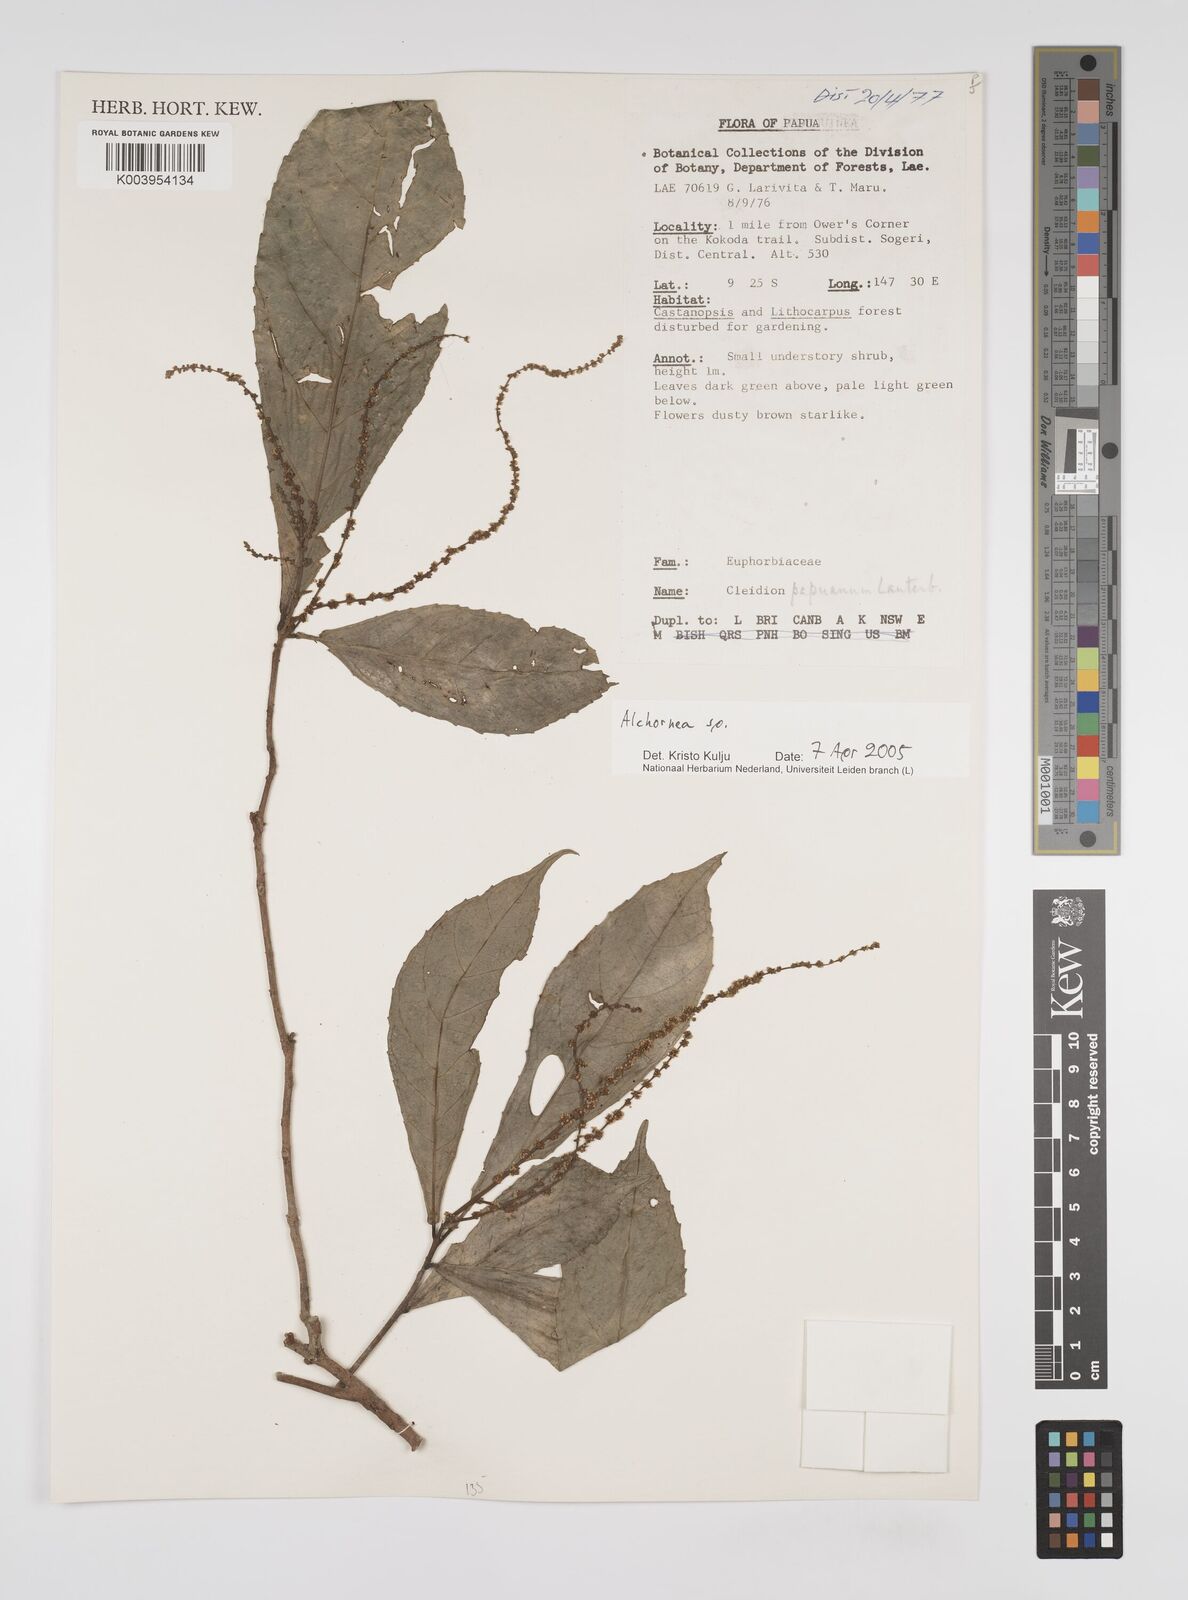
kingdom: Plantae
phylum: Tracheophyta
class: Magnoliopsida
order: Malpighiales
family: Euphorbiaceae
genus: Alchornea
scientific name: Alchornea
